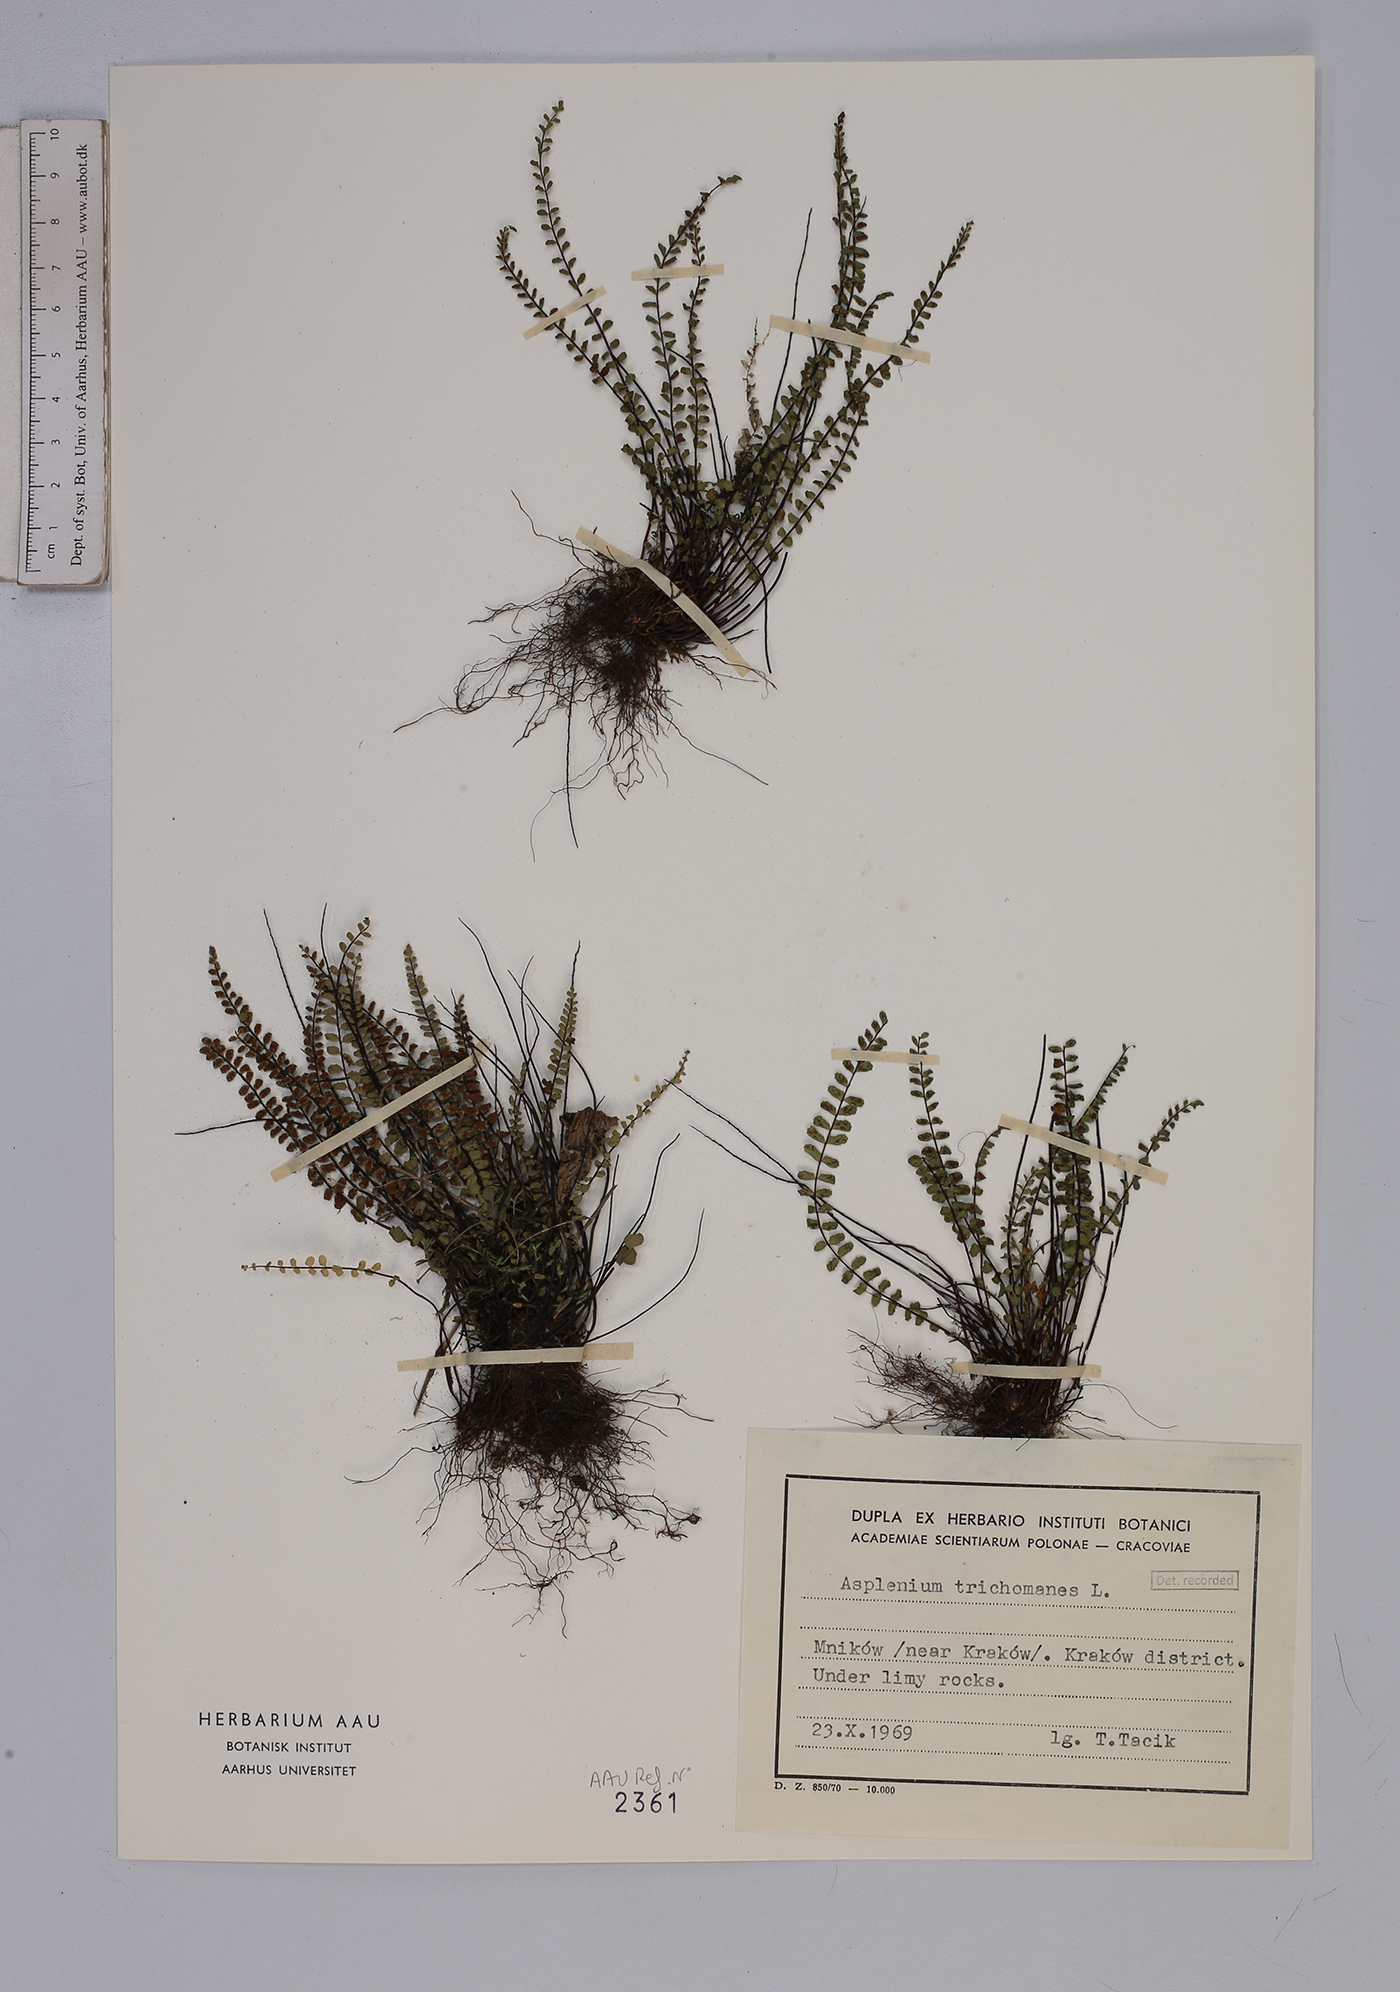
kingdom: Plantae
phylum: Tracheophyta
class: Polypodiopsida
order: Polypodiales
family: Aspleniaceae
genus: Asplenium
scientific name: Asplenium trichomanes
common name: Maidenhair spleenwort
